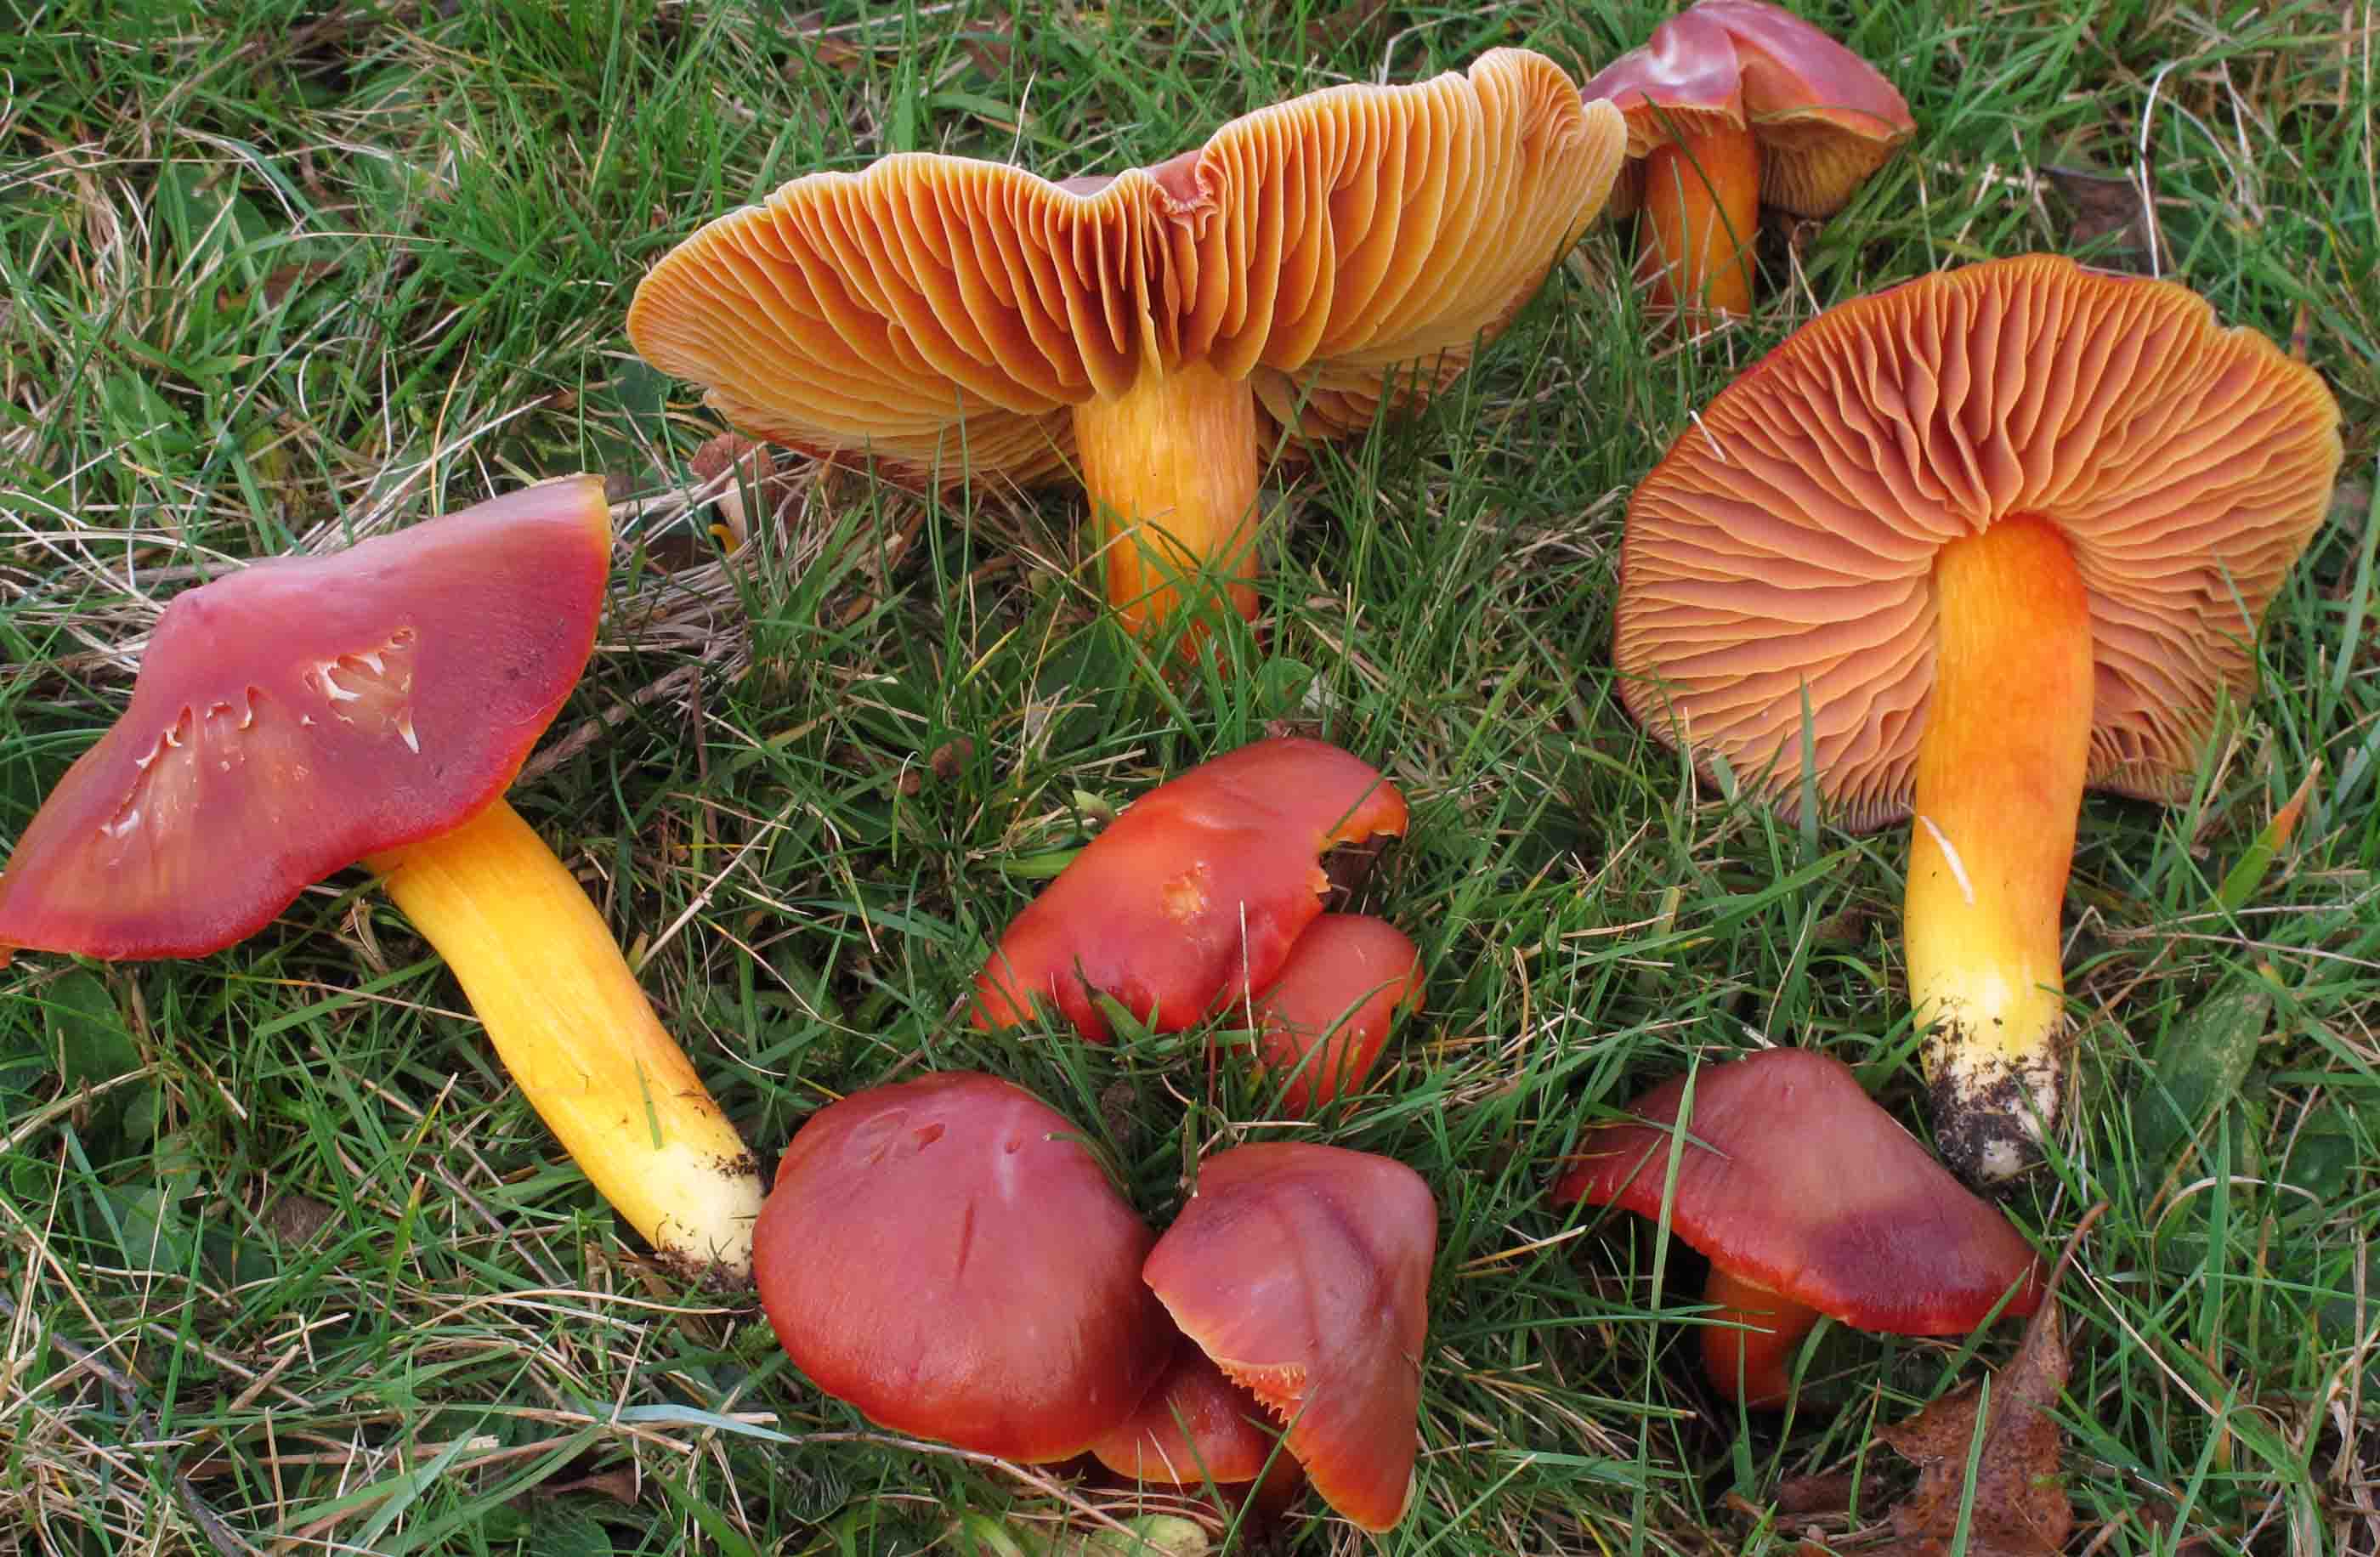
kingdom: Fungi
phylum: Basidiomycota
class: Agaricomycetes
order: Agaricales
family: Hygrophoraceae
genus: Hygrocybe
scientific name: Hygrocybe punicea
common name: skarlagen-vokshat
